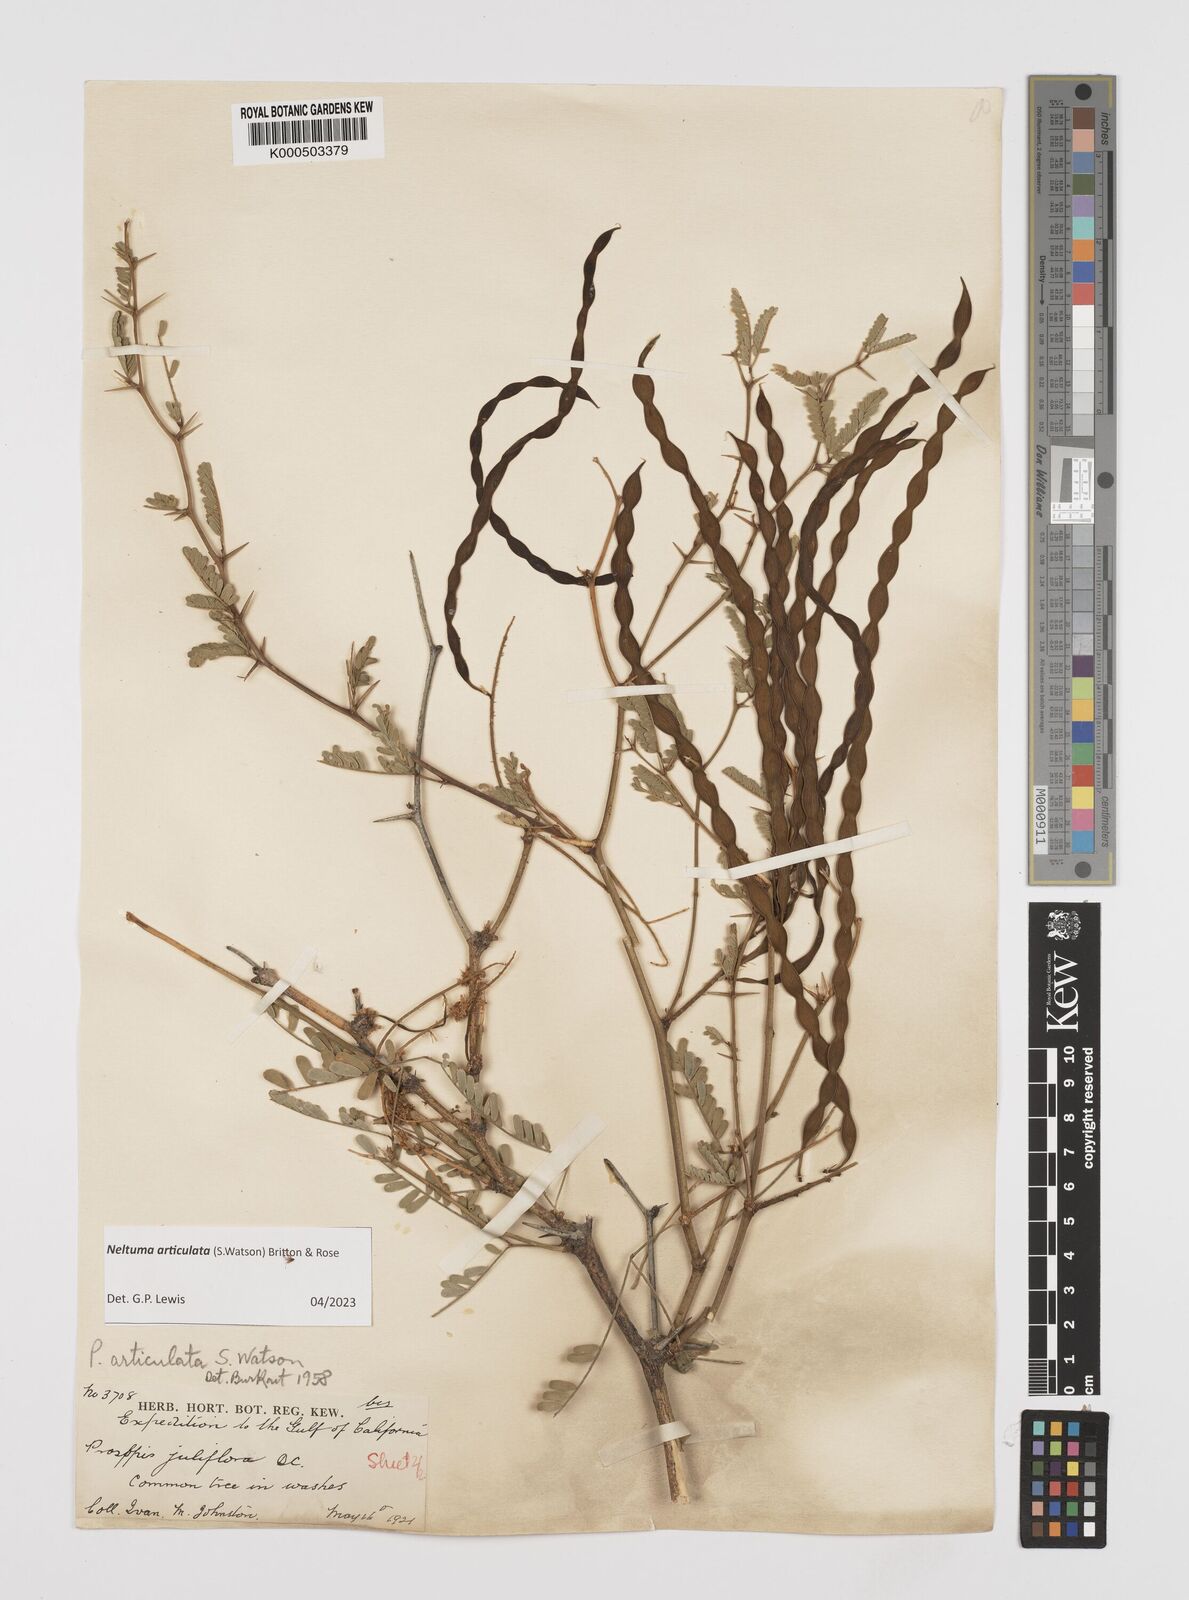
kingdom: Plantae
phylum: Tracheophyta
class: Magnoliopsida
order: Fabales
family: Fabaceae
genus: Prosopis
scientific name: Prosopis articulata
